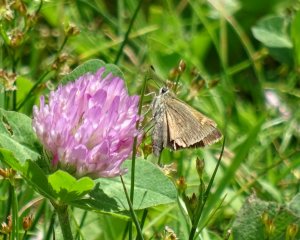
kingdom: Animalia
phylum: Arthropoda
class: Insecta
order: Lepidoptera
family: Hesperiidae
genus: Polites
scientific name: Polites themistocles
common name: Tawny-edged Skipper
